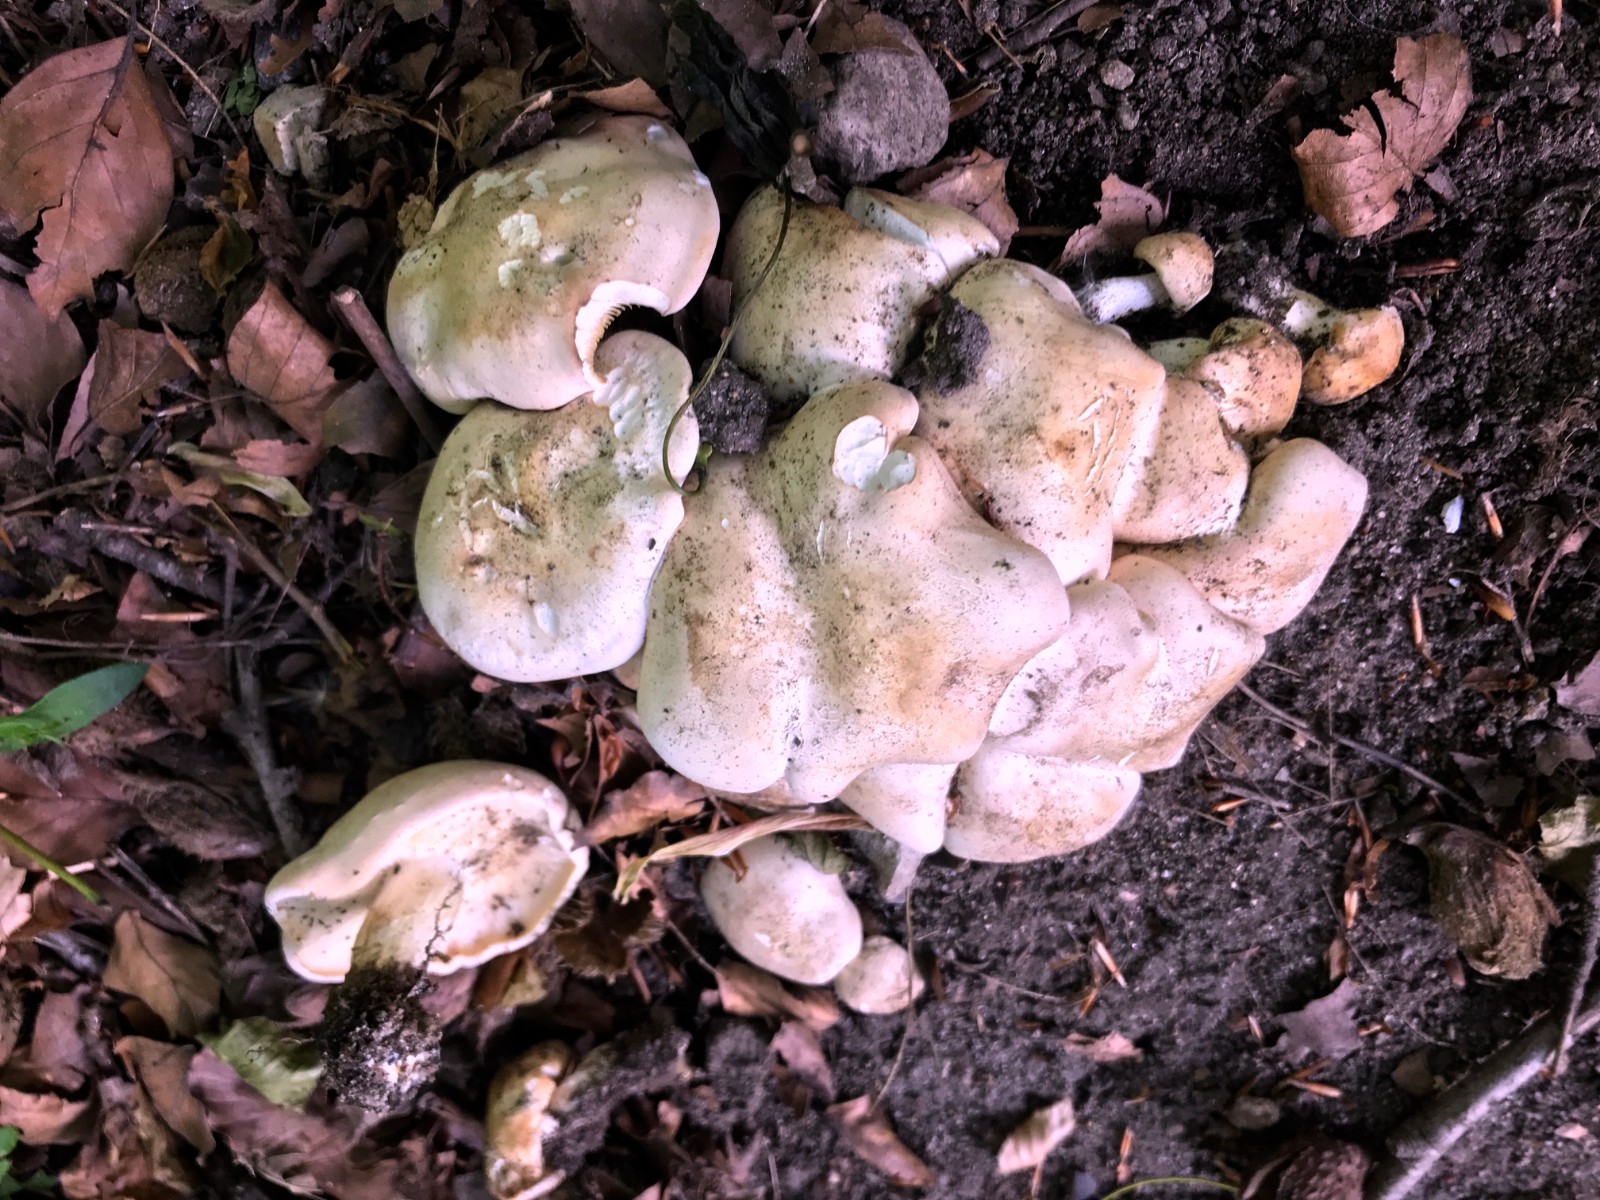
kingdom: Fungi
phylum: Basidiomycota
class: Agaricomycetes
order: Agaricales
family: Lyophyllaceae
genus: Calocybe
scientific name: Calocybe gambosa
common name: vårmusseron
